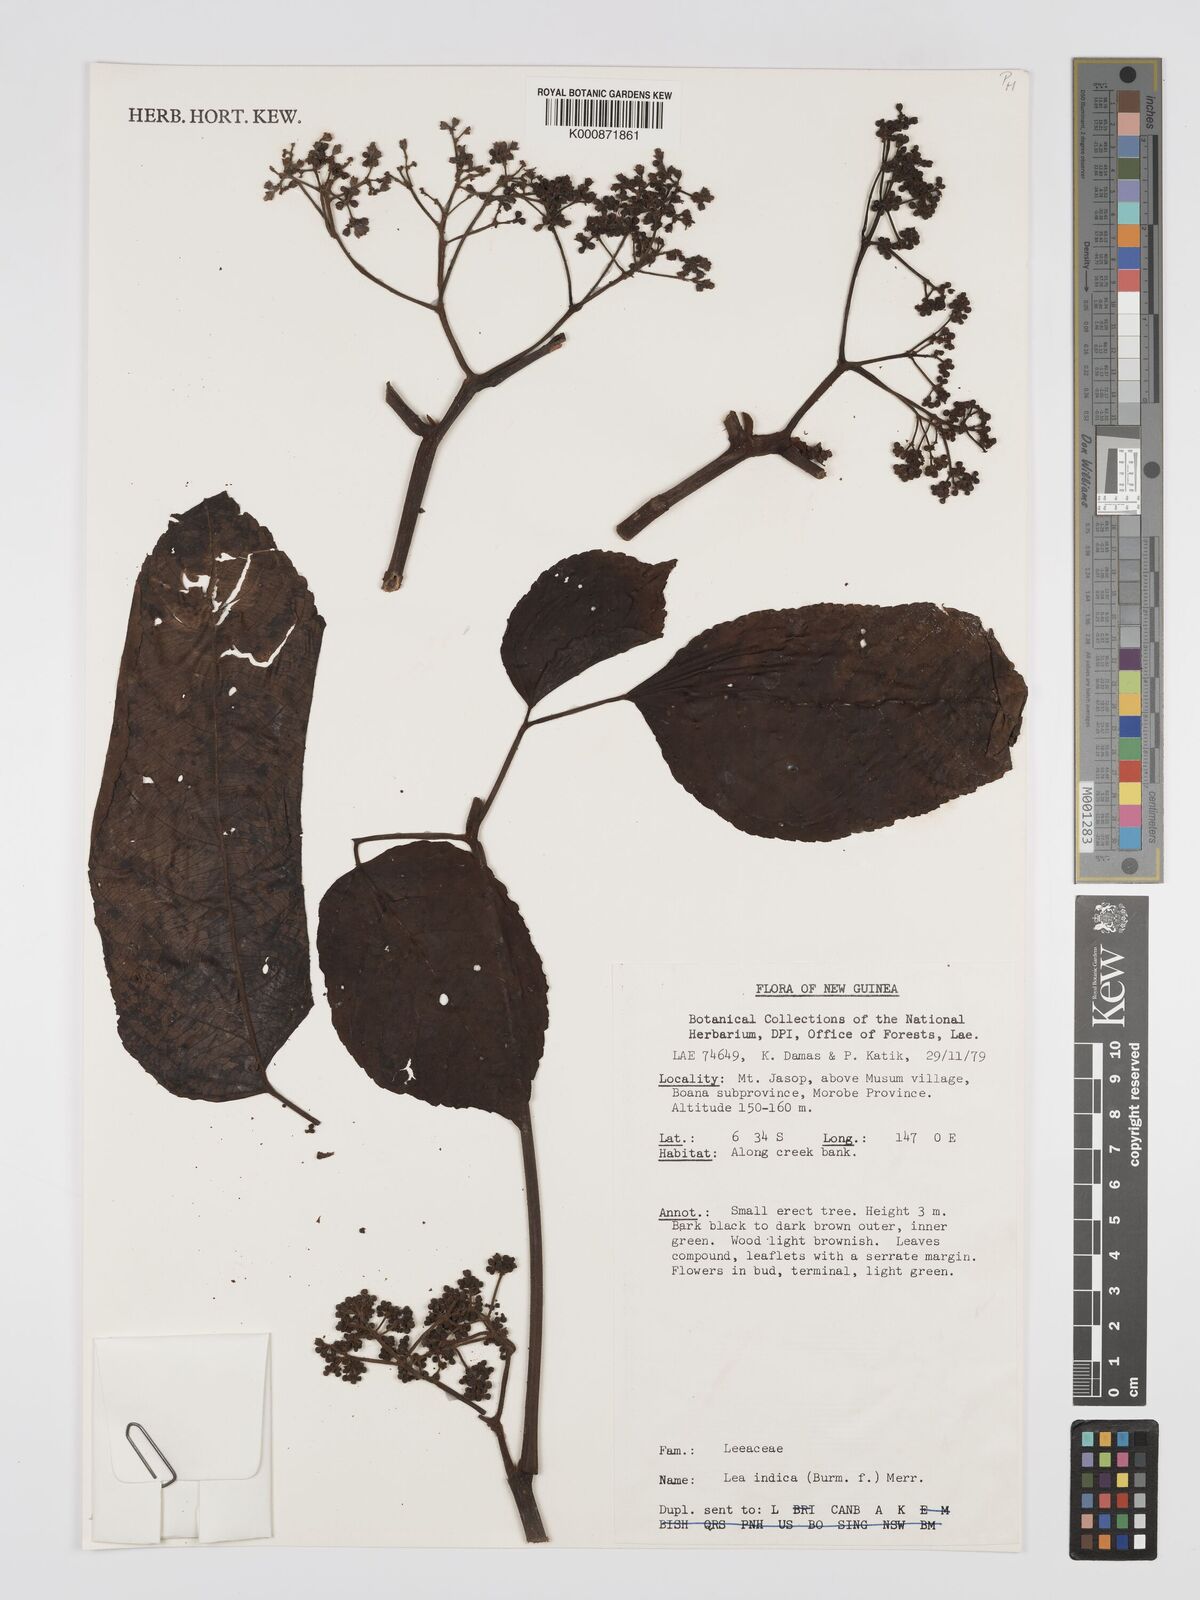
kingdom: Plantae
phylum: Tracheophyta
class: Magnoliopsida
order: Vitales
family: Vitaceae
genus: Leea
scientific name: Leea indica
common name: Bandicoot-berry
